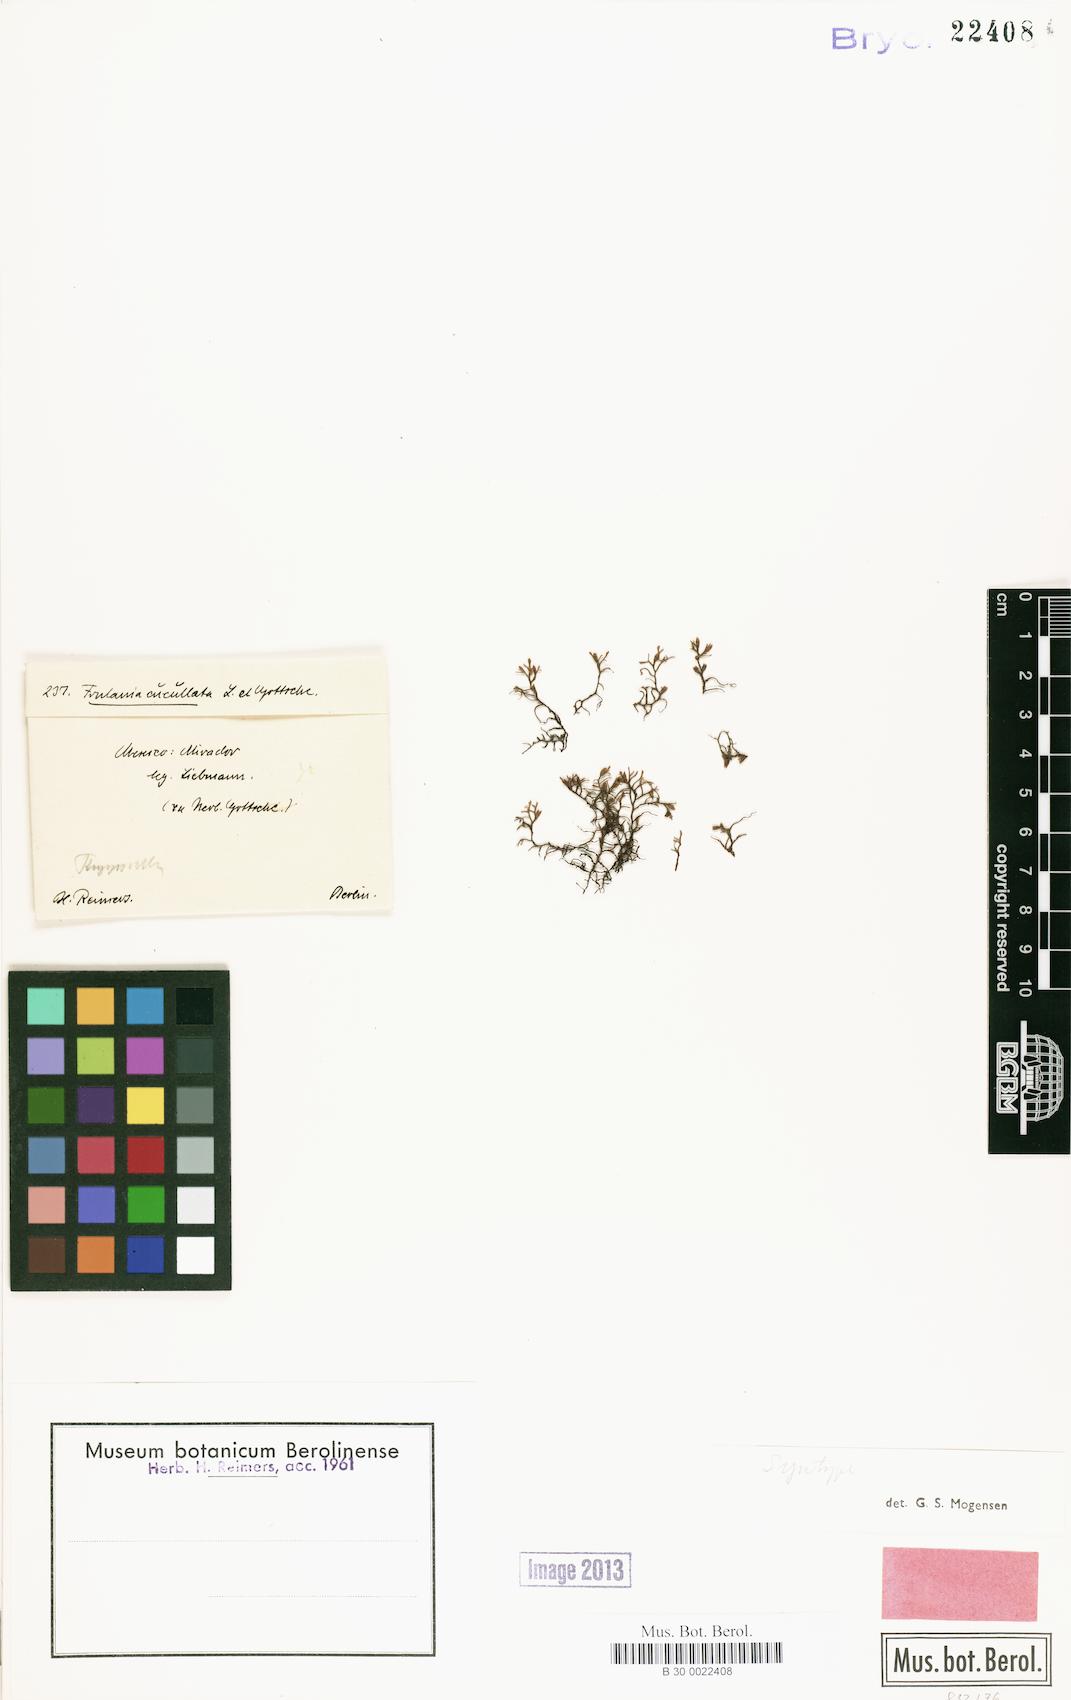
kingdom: Plantae
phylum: Marchantiophyta
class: Jungermanniopsida
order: Porellales
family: Frullaniaceae
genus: Frullania
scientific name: Frullania intumescens
